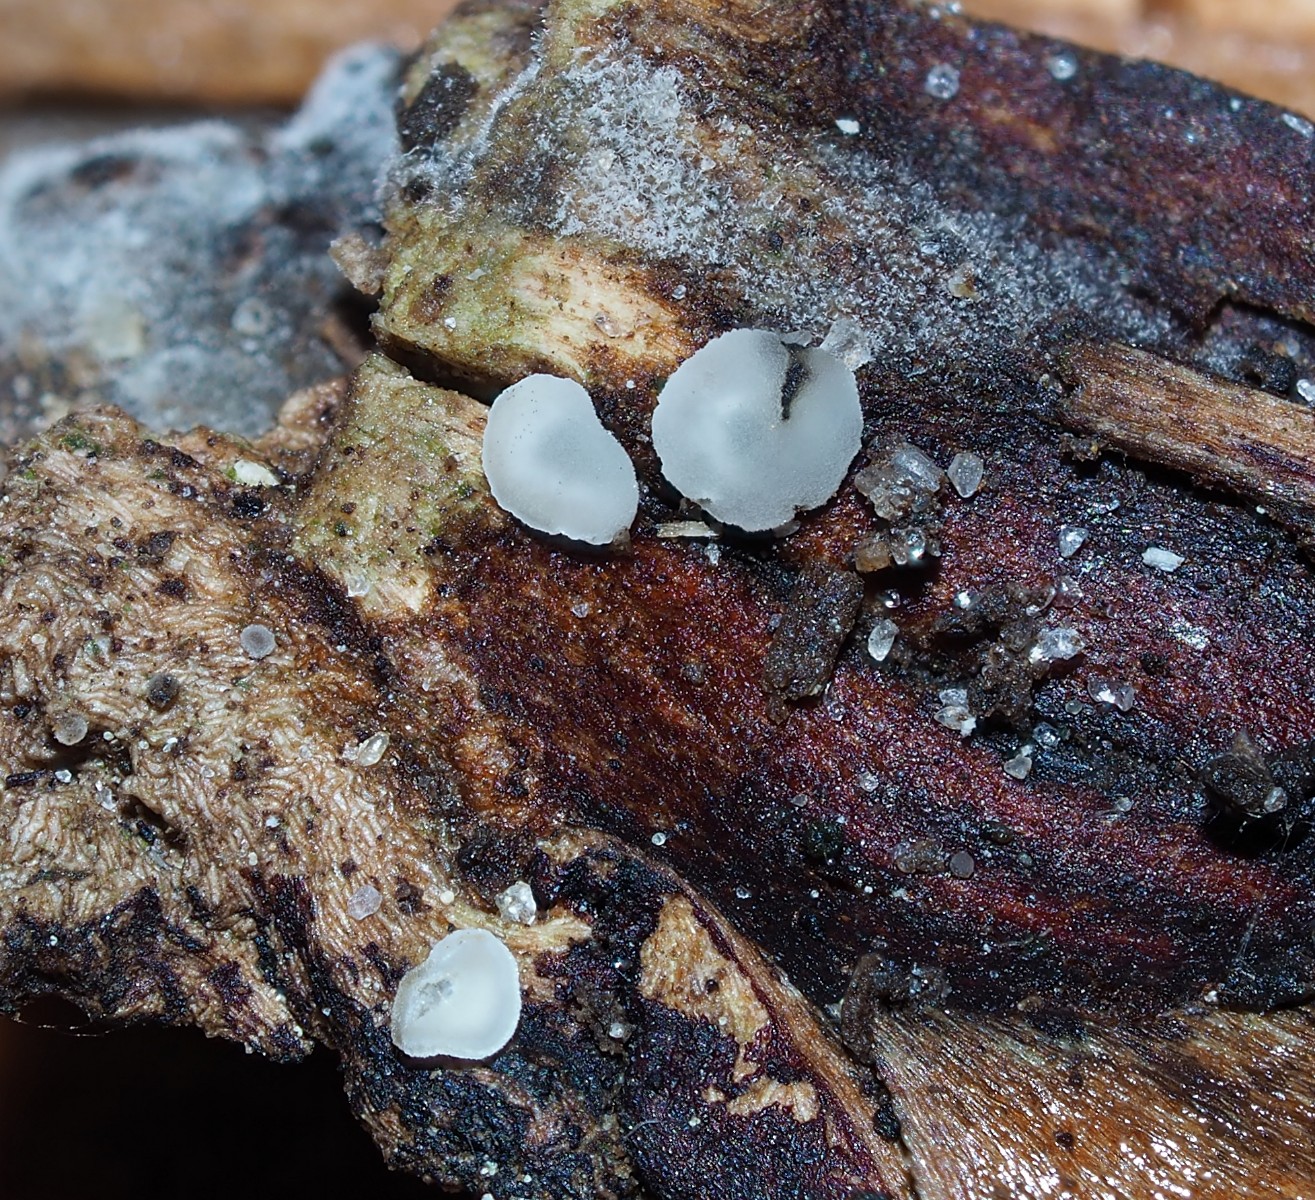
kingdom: Fungi
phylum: Ascomycota
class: Leotiomycetes
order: Helotiales
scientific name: Helotiales
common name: stilkskiveordenen
